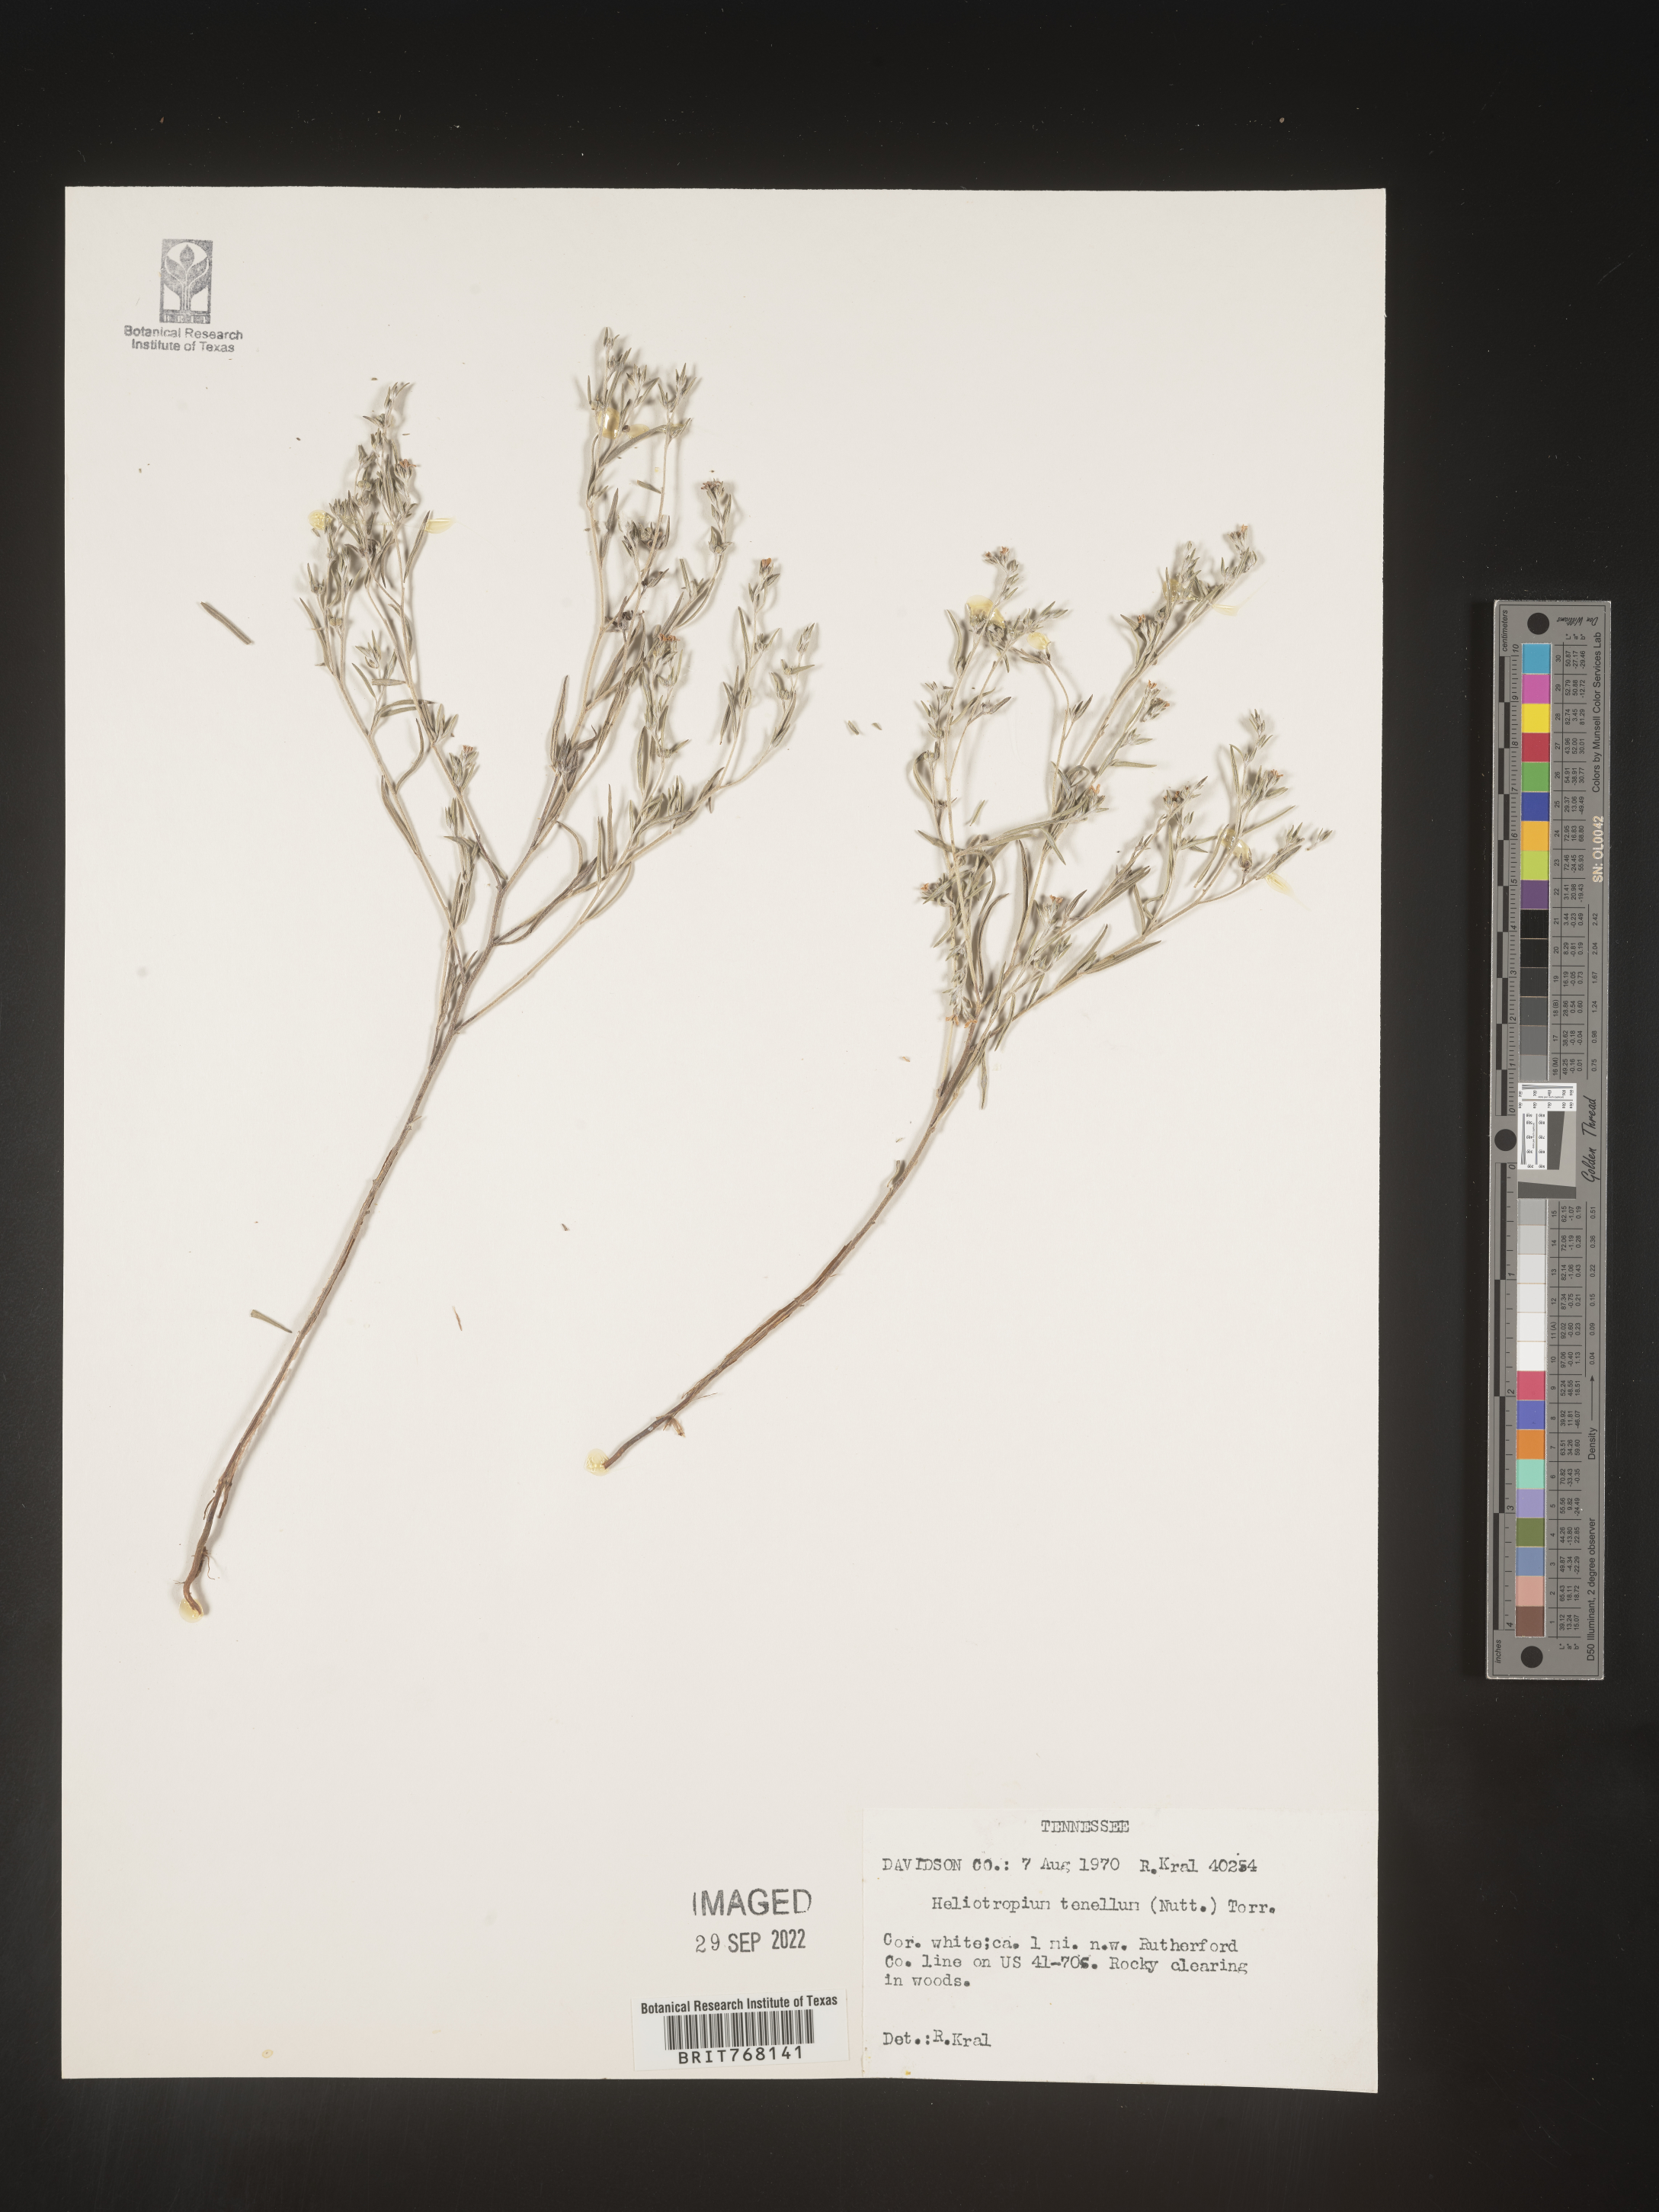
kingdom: Plantae
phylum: Tracheophyta
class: Magnoliopsida
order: Boraginales
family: Heliotropiaceae
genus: Euploca
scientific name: Euploca tenella
